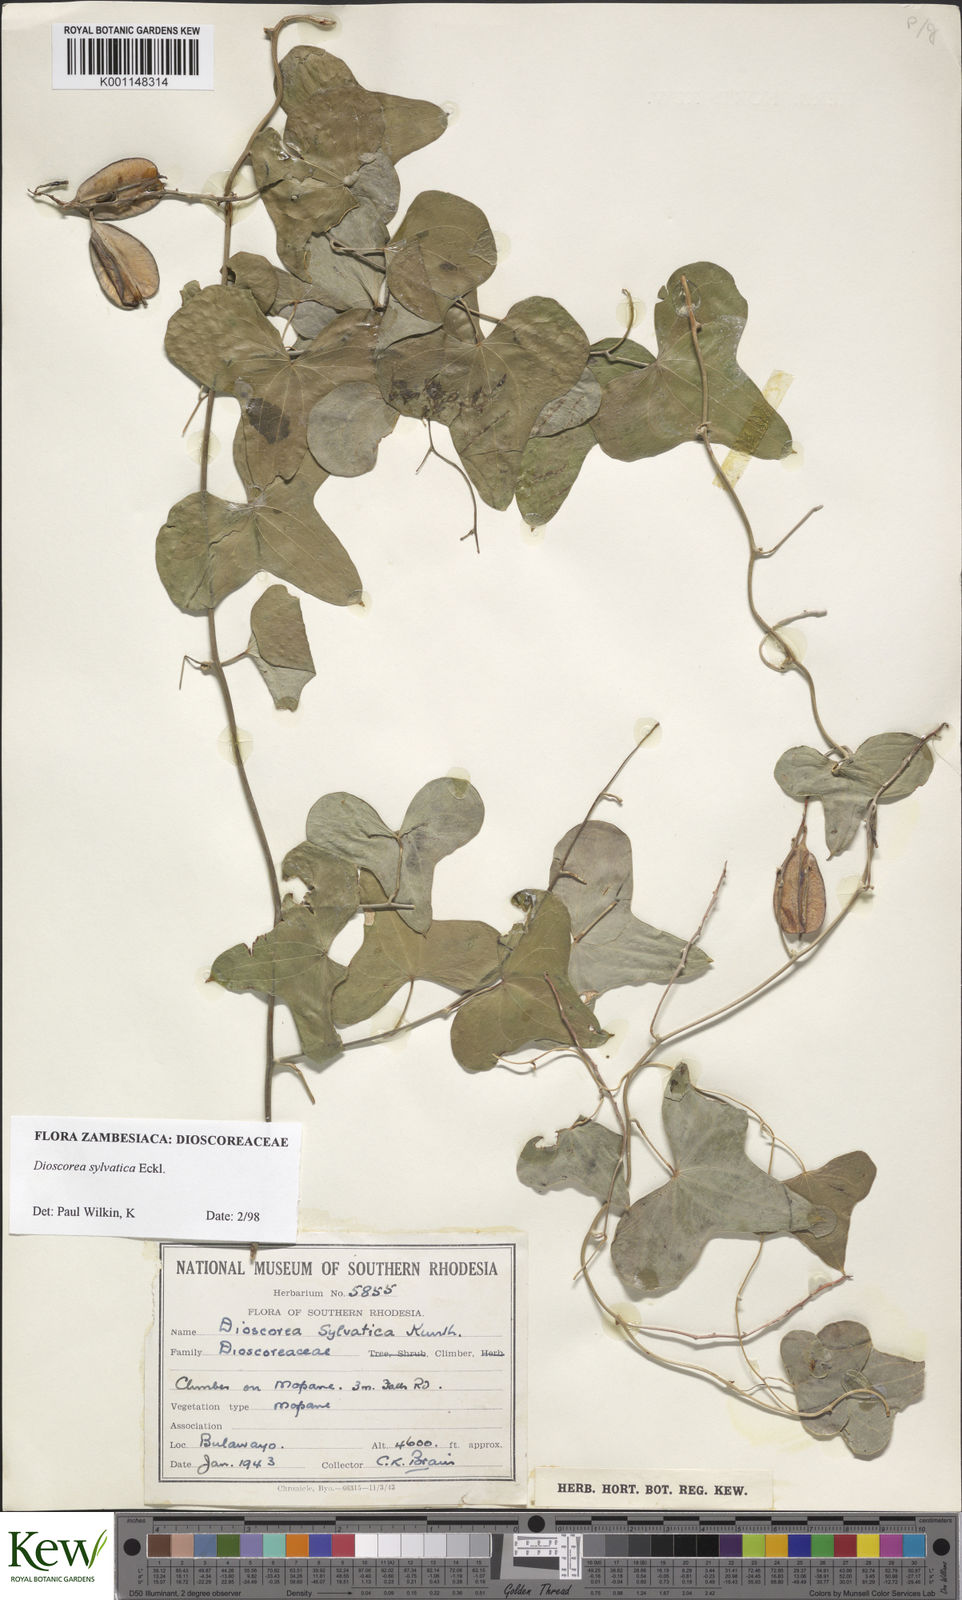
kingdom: Plantae
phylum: Tracheophyta
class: Liliopsida
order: Dioscoreales
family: Dioscoreaceae
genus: Dioscorea
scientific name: Dioscorea sylvatica
